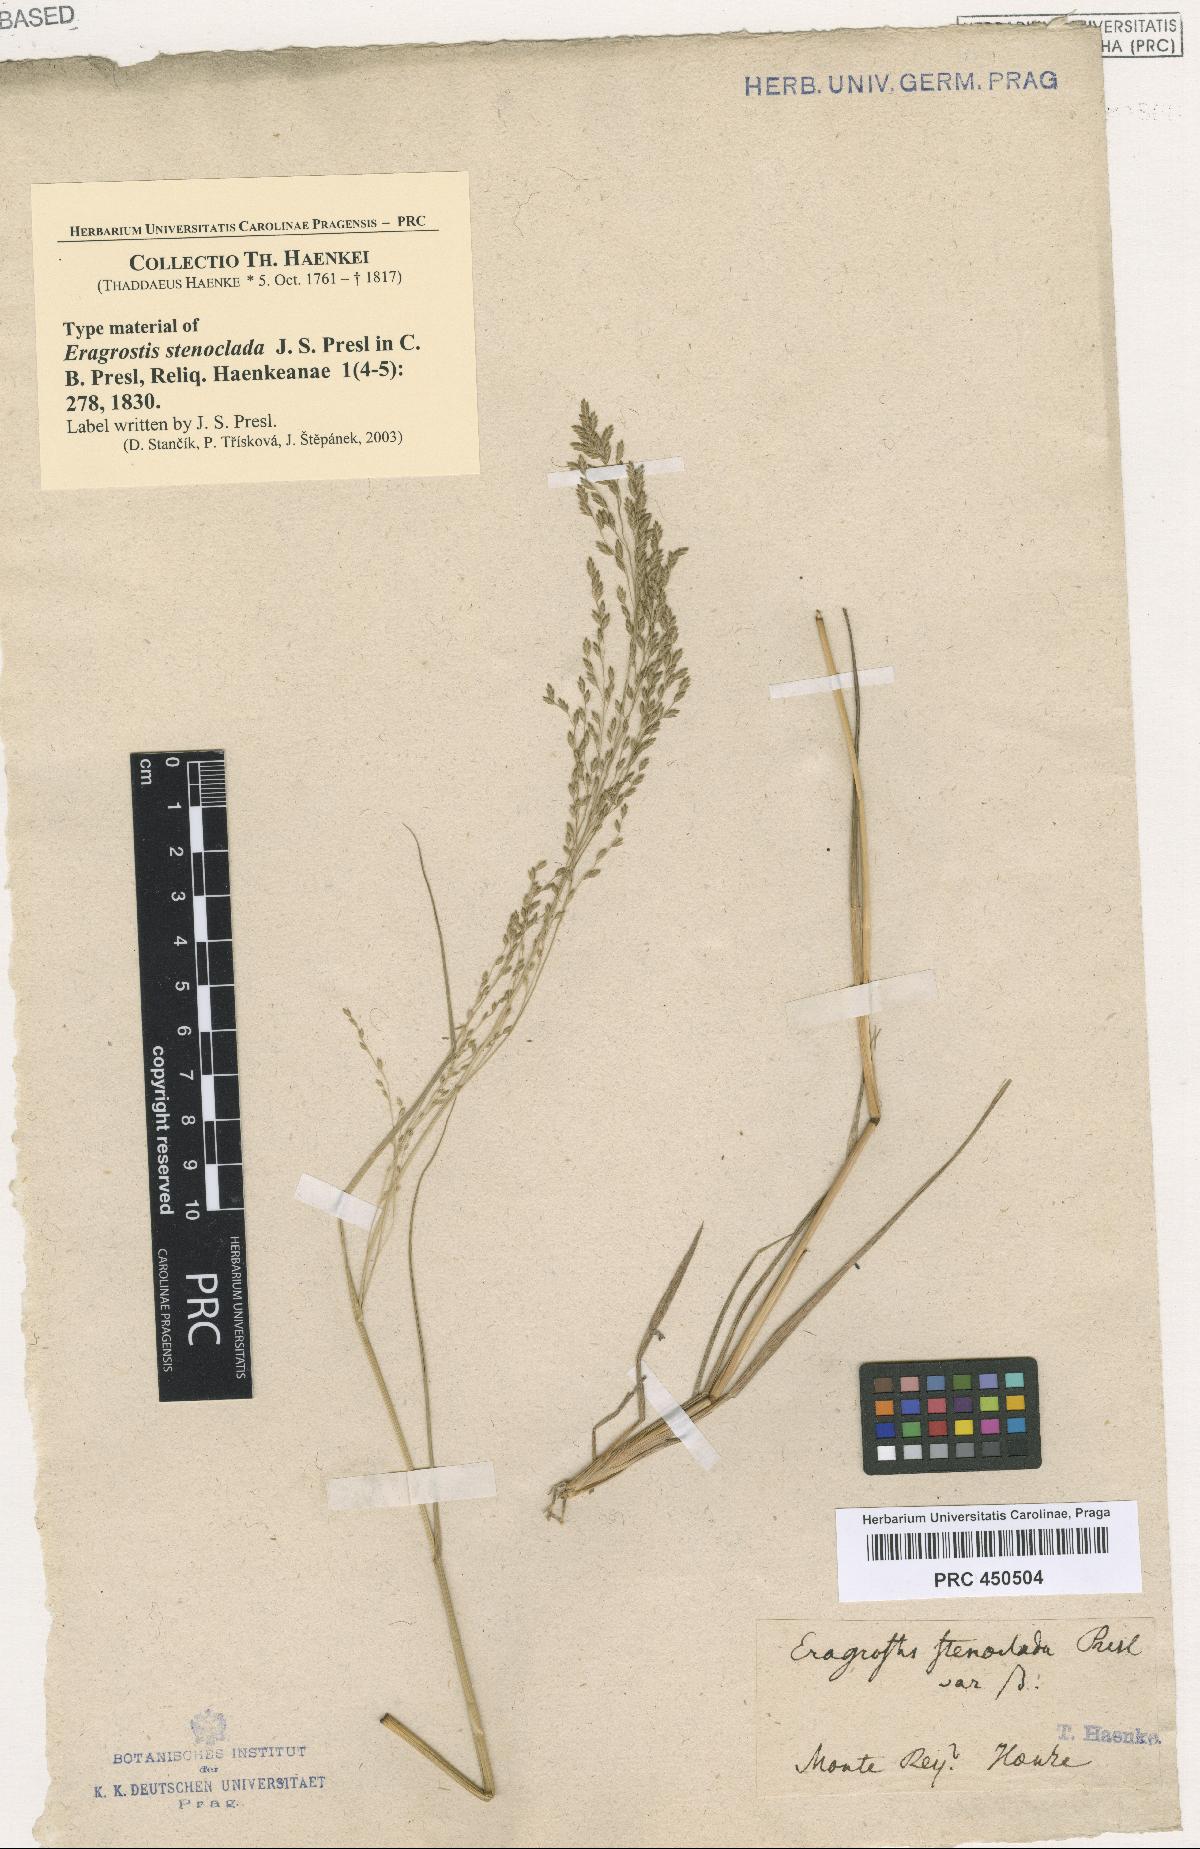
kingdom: Plantae
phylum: Tracheophyta
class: Liliopsida
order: Poales
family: Poaceae
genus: Eragrostis
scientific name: Eragrostis gangetica
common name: Slimflower lovegrass
